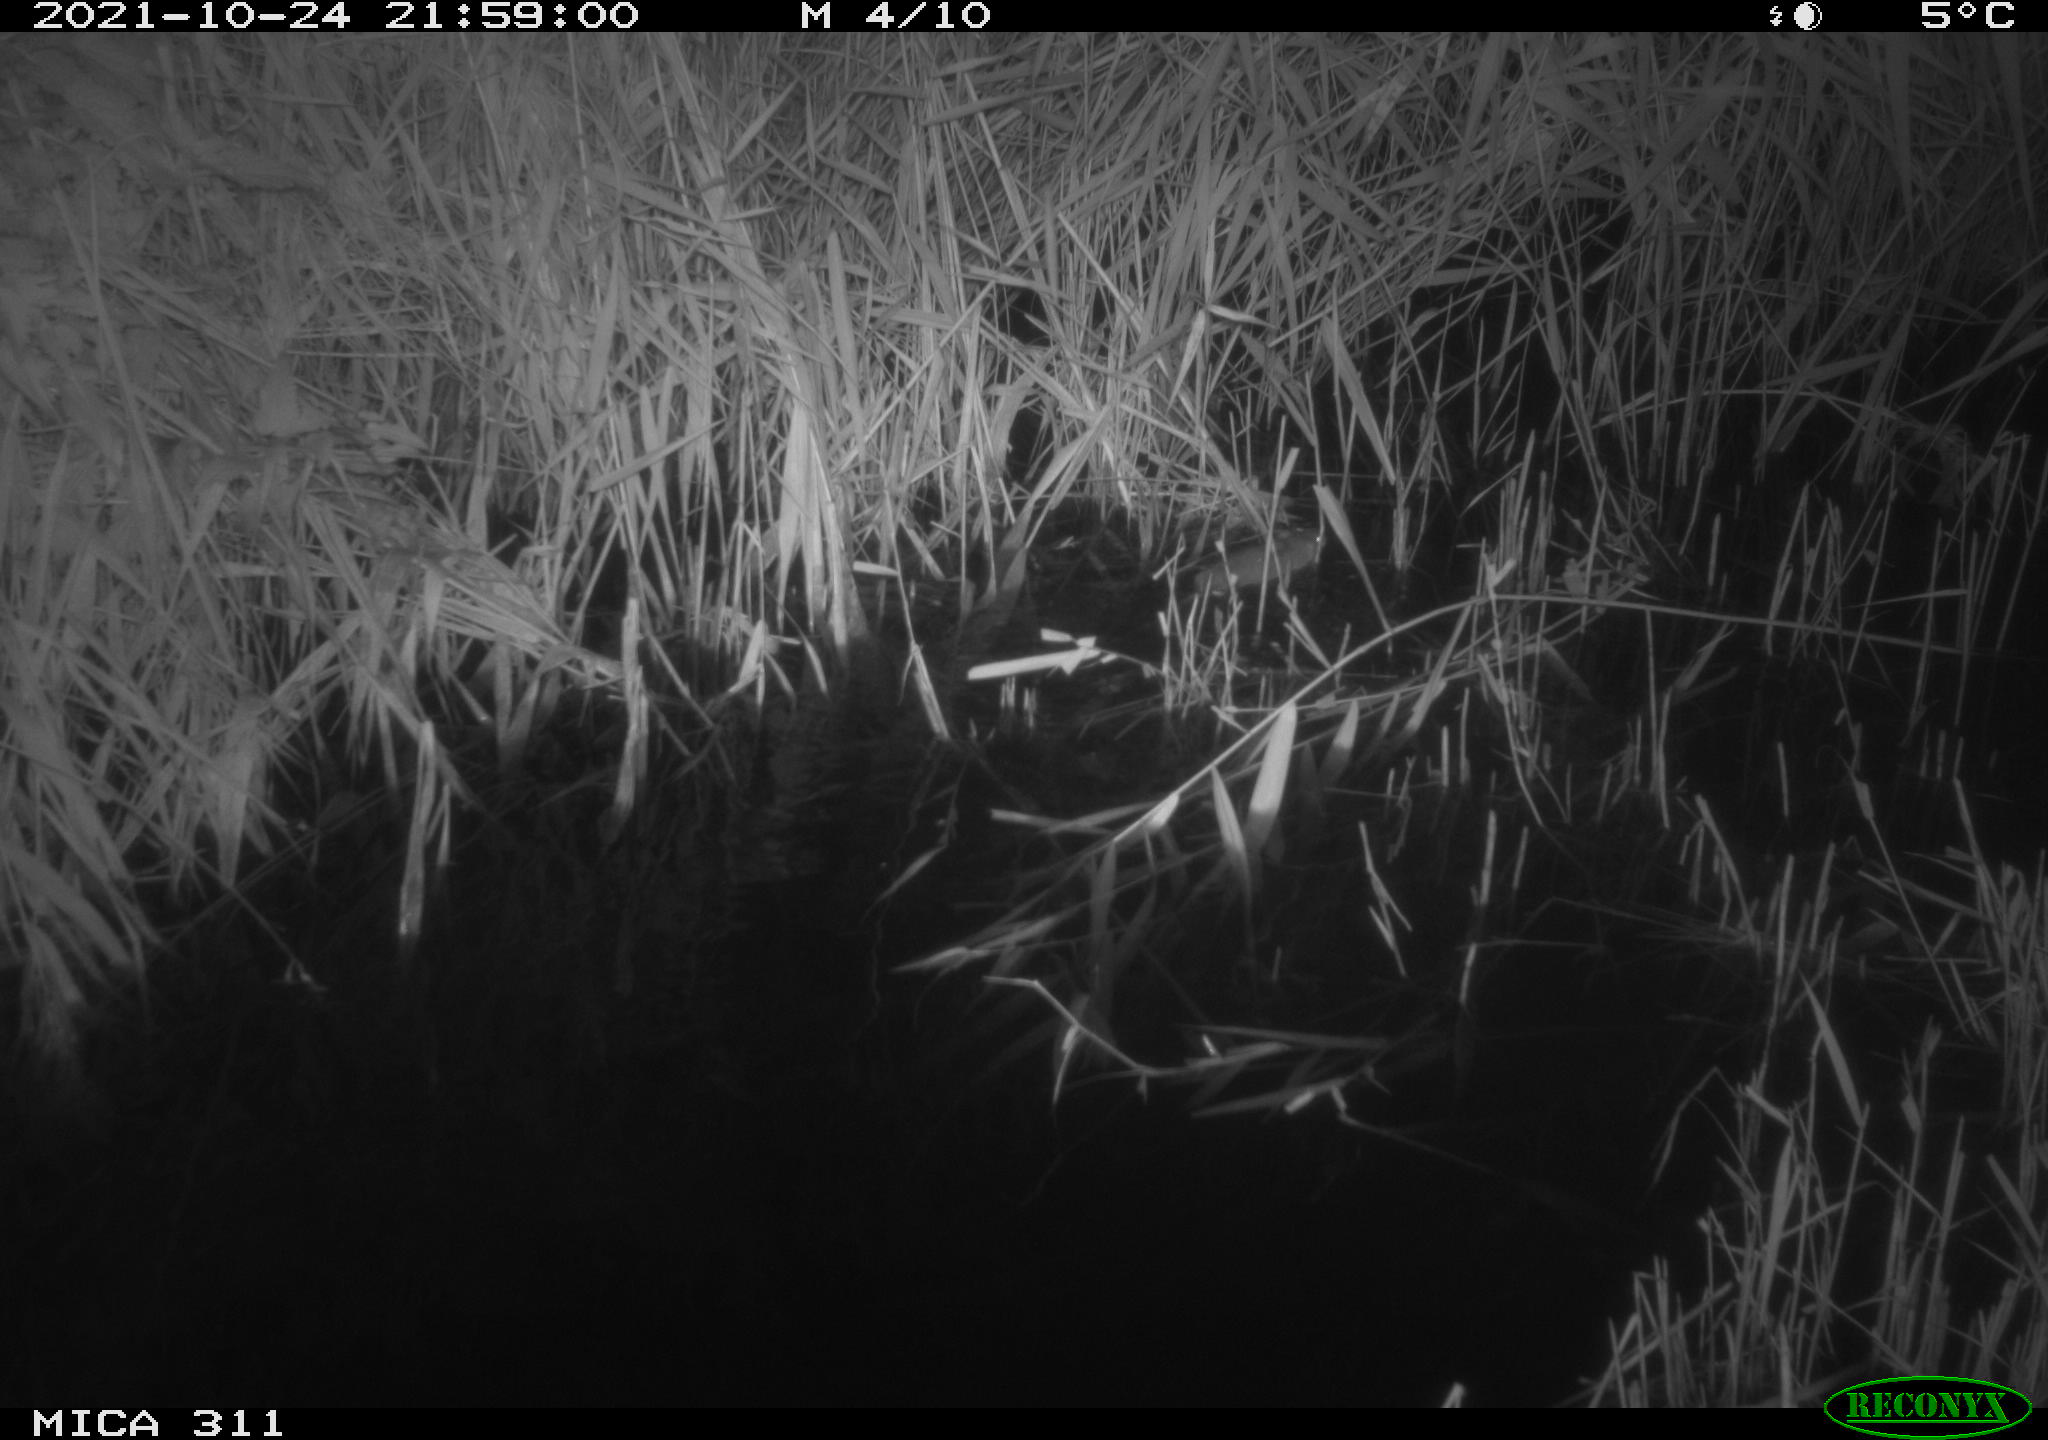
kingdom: Animalia
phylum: Chordata
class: Mammalia
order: Rodentia
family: Muridae
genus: Rattus
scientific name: Rattus norvegicus
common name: Brown rat
